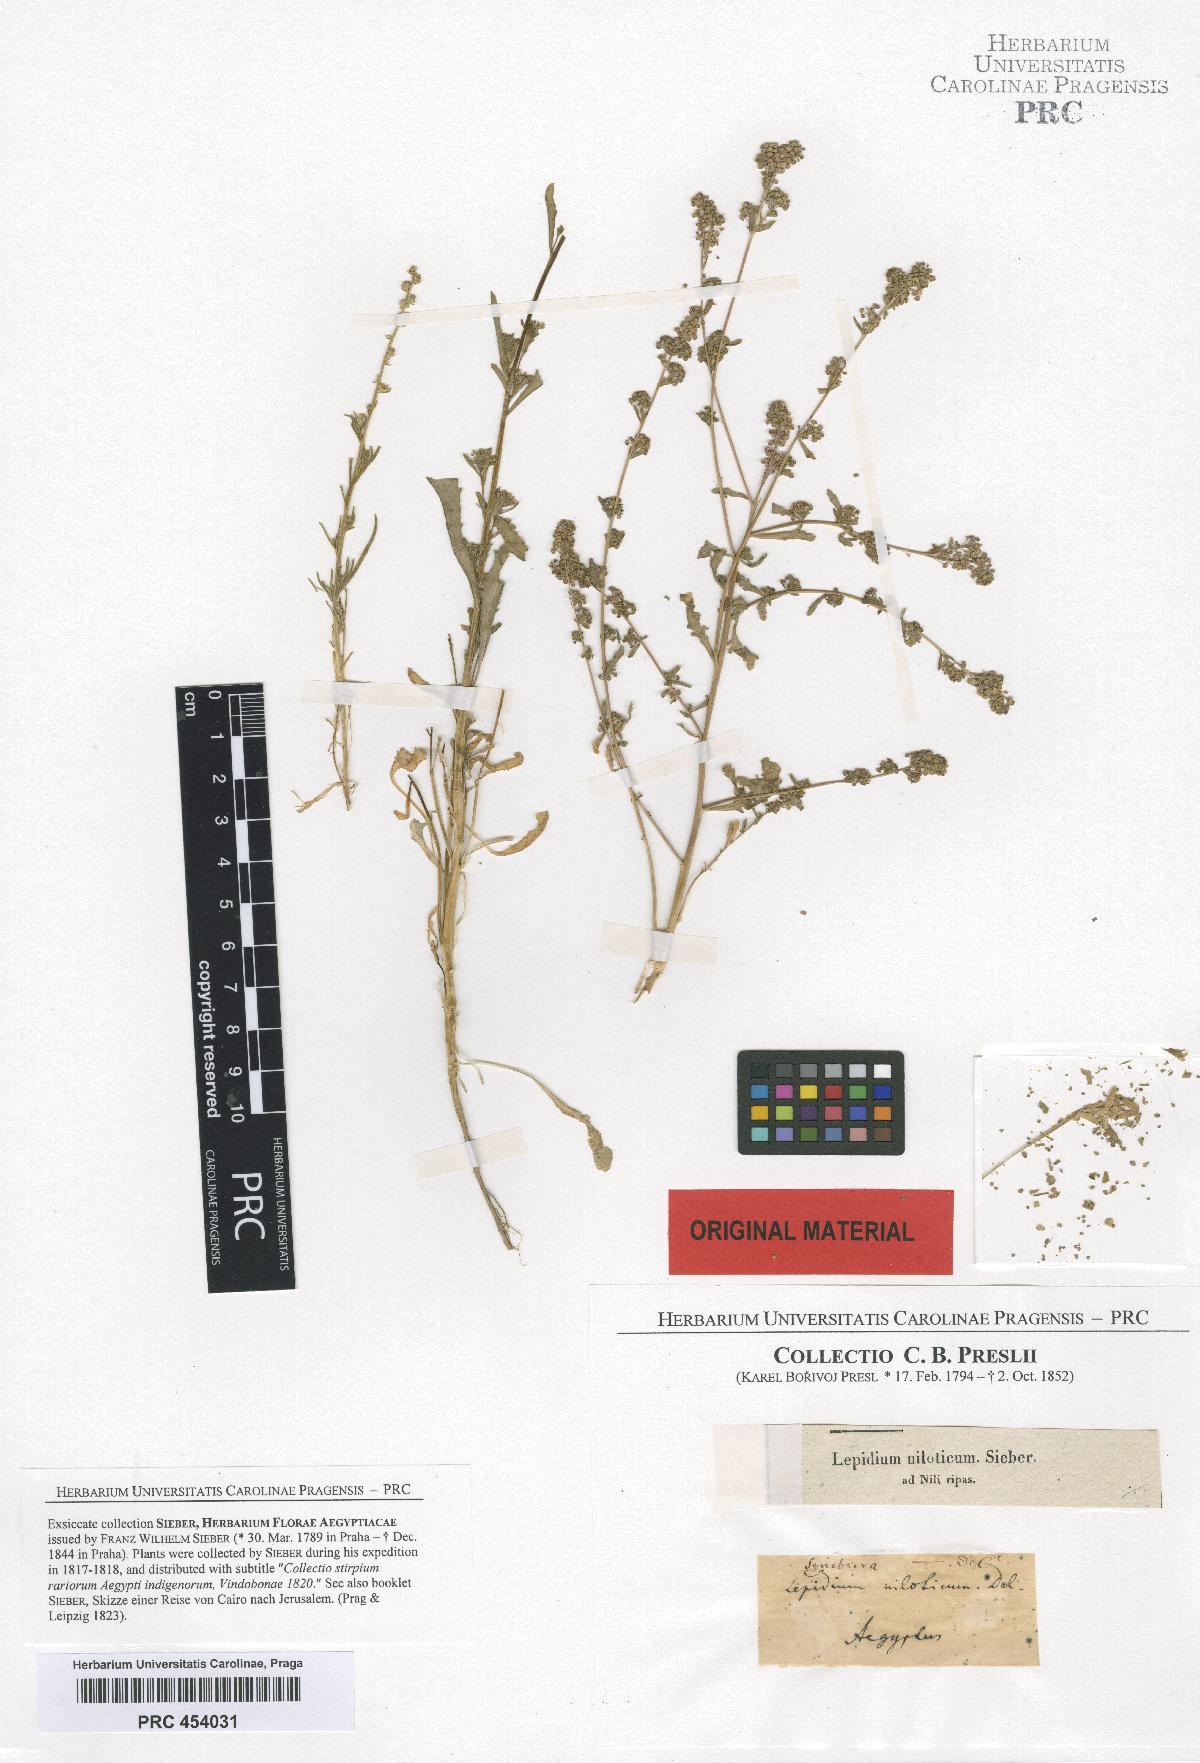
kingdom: Plantae
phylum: Tracheophyta
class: Magnoliopsida
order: Brassicales
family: Brassicaceae
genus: Lepidium
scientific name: Lepidium niloticum
